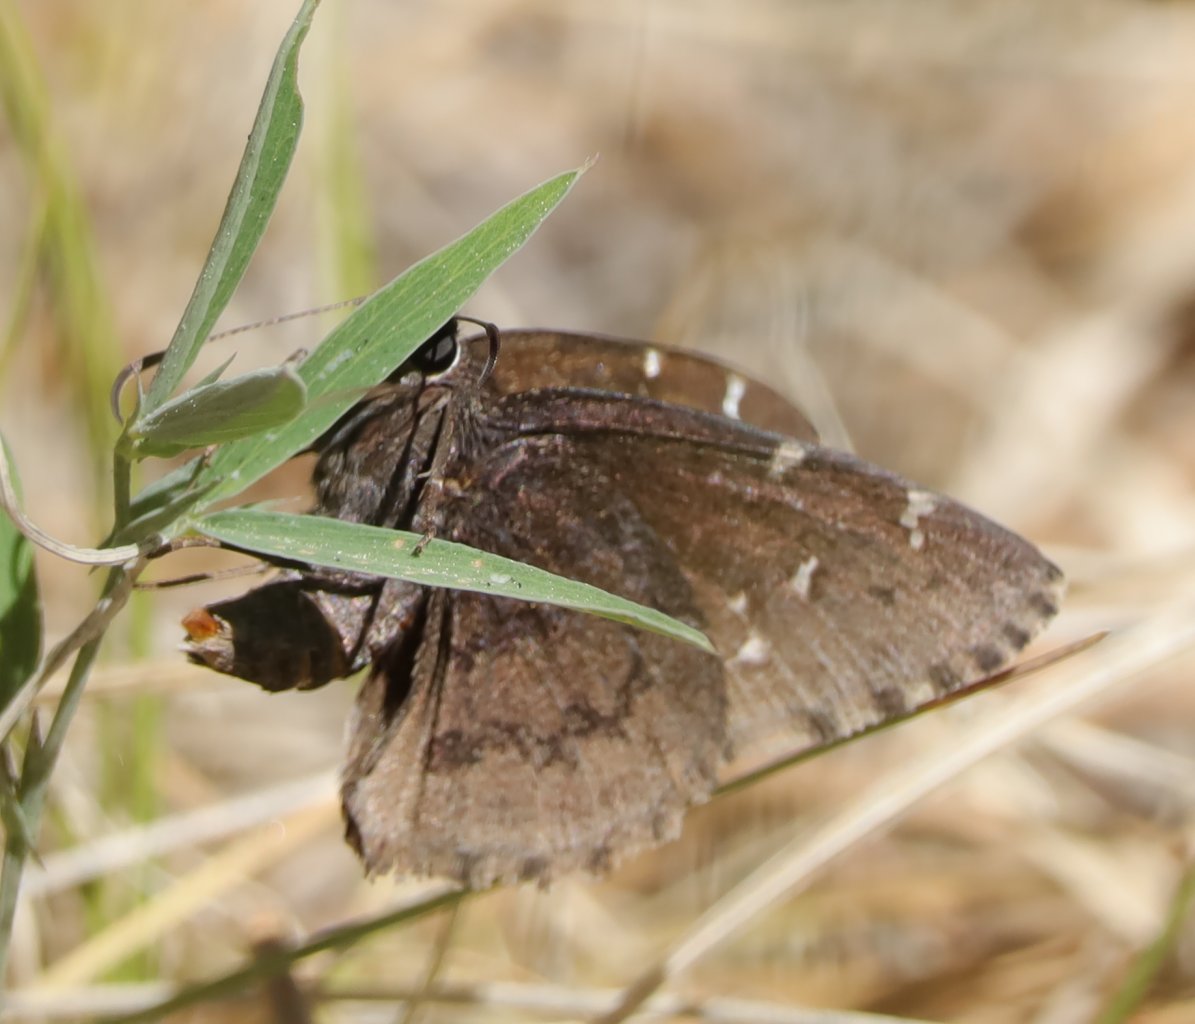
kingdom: Animalia
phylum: Arthropoda
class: Insecta
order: Lepidoptera
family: Hesperiidae
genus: Autochton
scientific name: Autochton
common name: Northern Cloudywing
